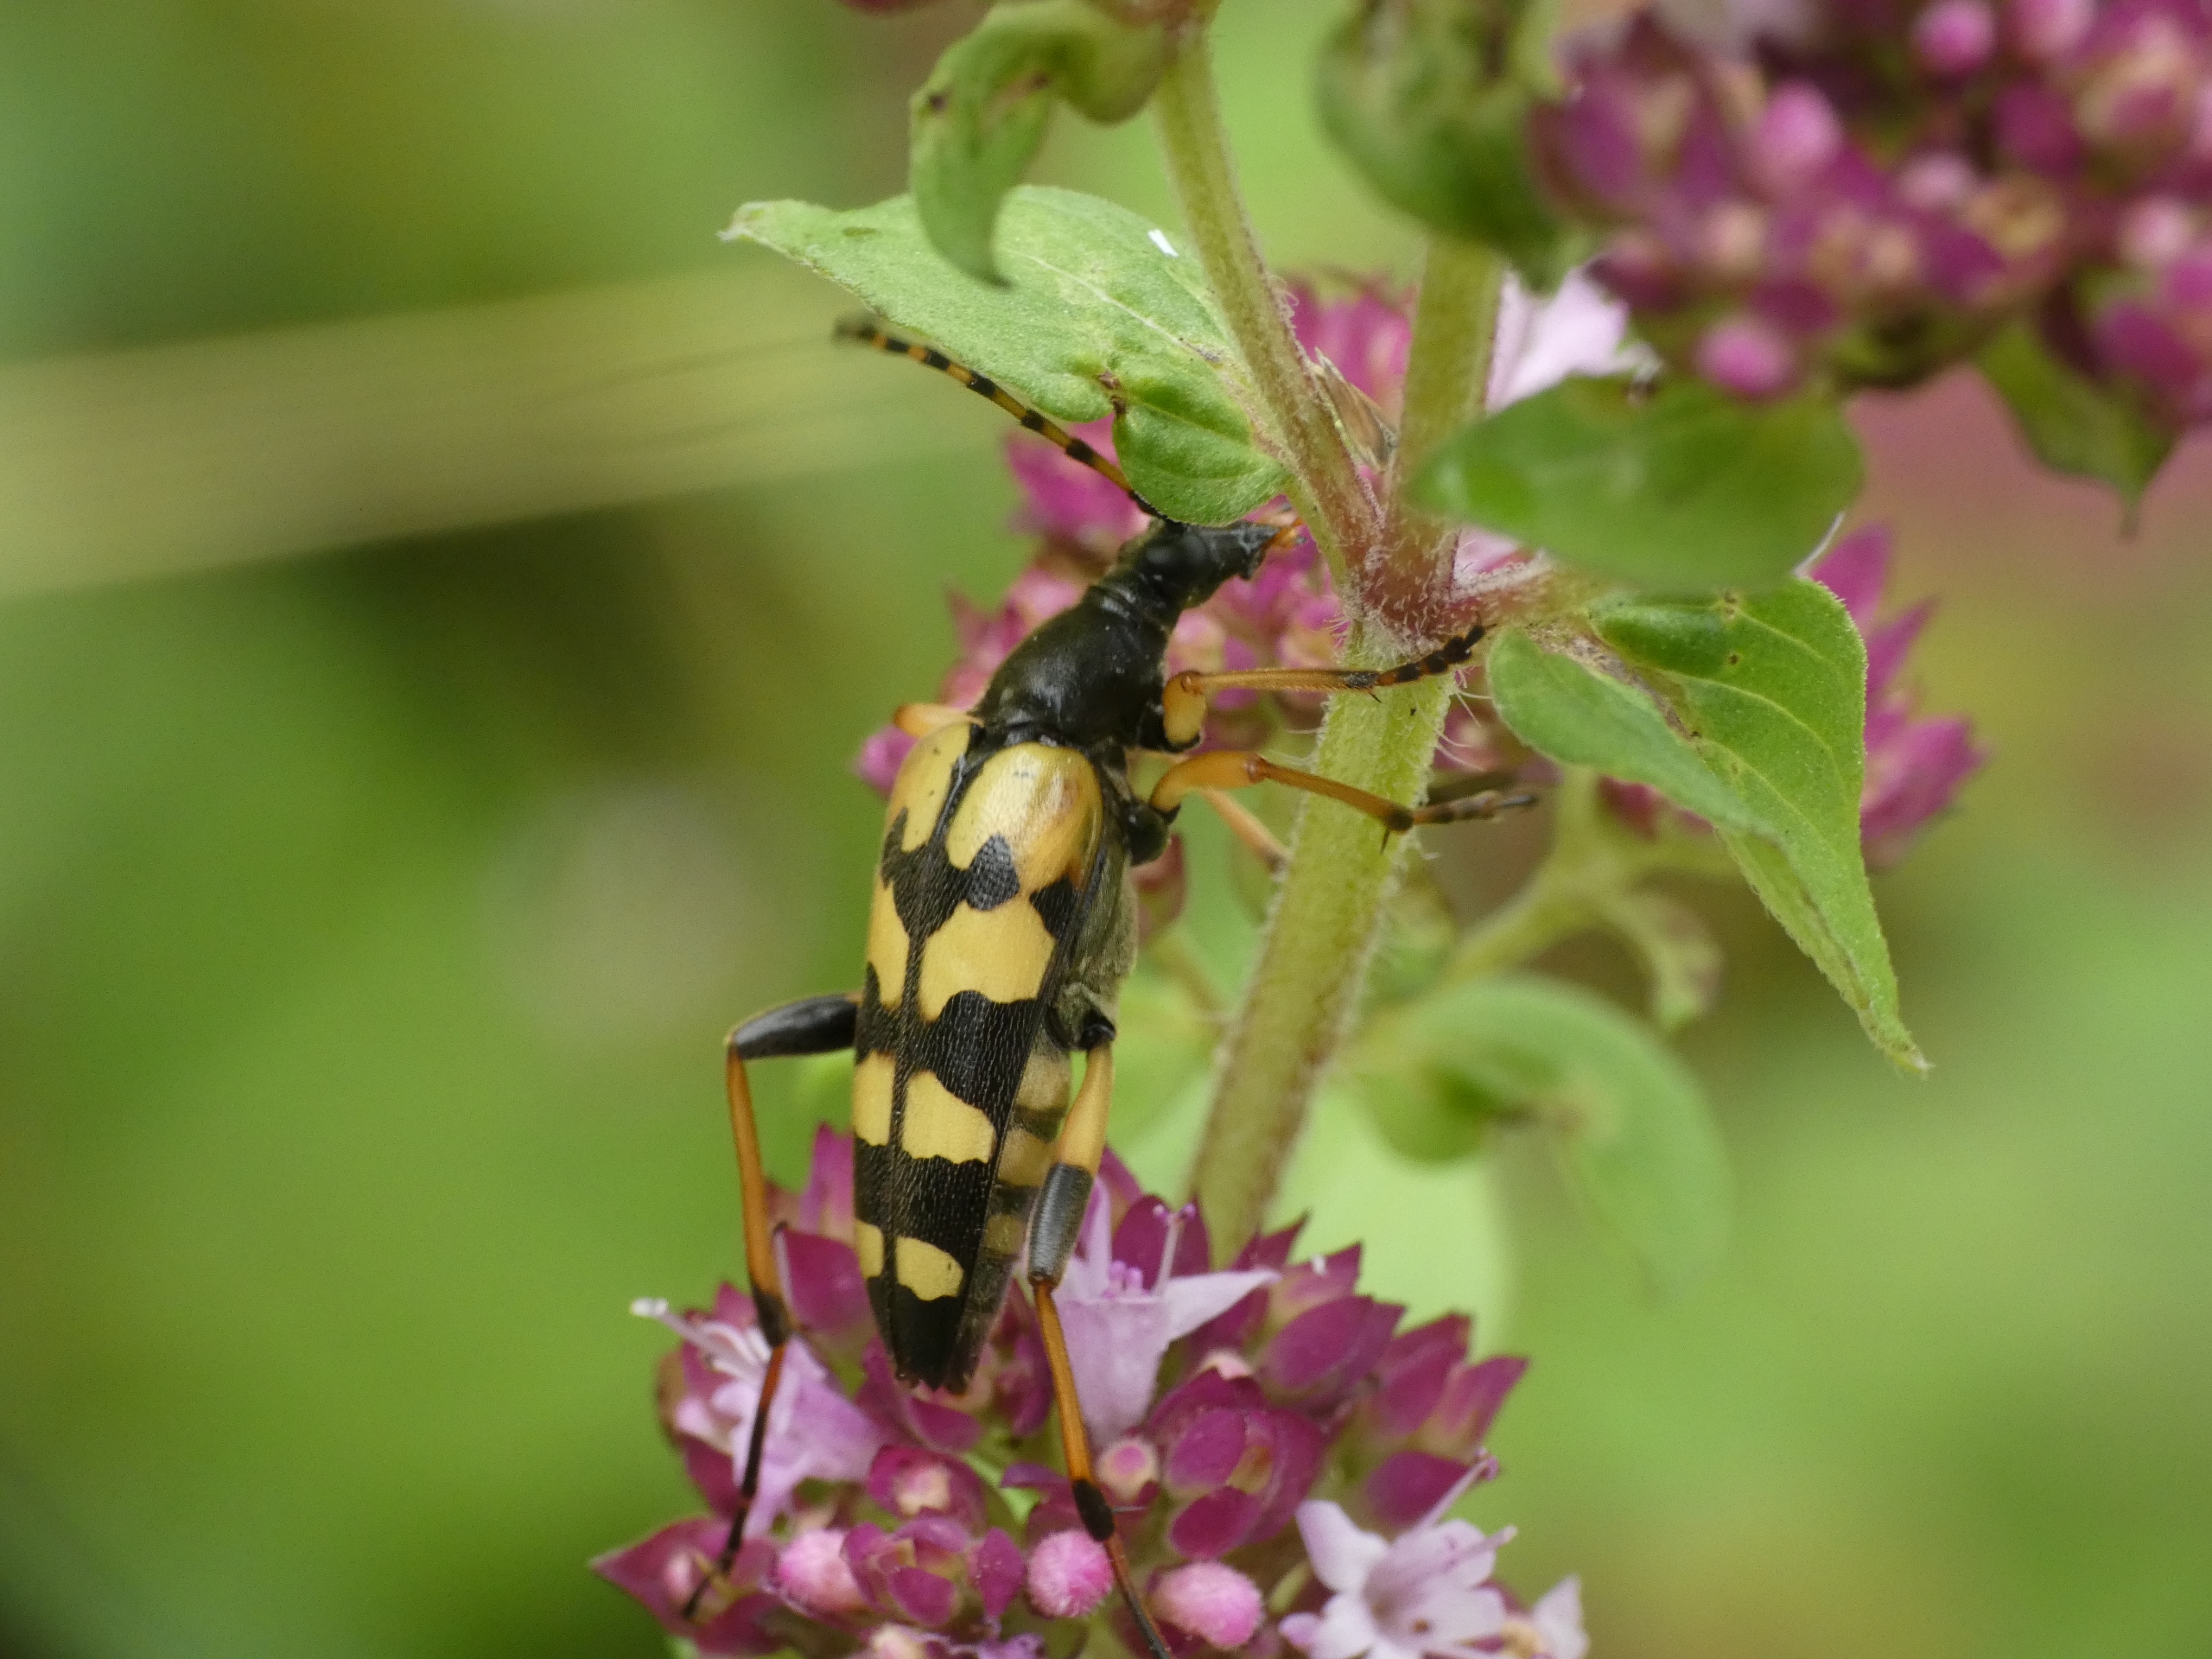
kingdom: Animalia
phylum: Arthropoda
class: Insecta
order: Coleoptera
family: Cerambycidae
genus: Rutpela
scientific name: Rutpela maculata
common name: Sydlig blomsterbuk
